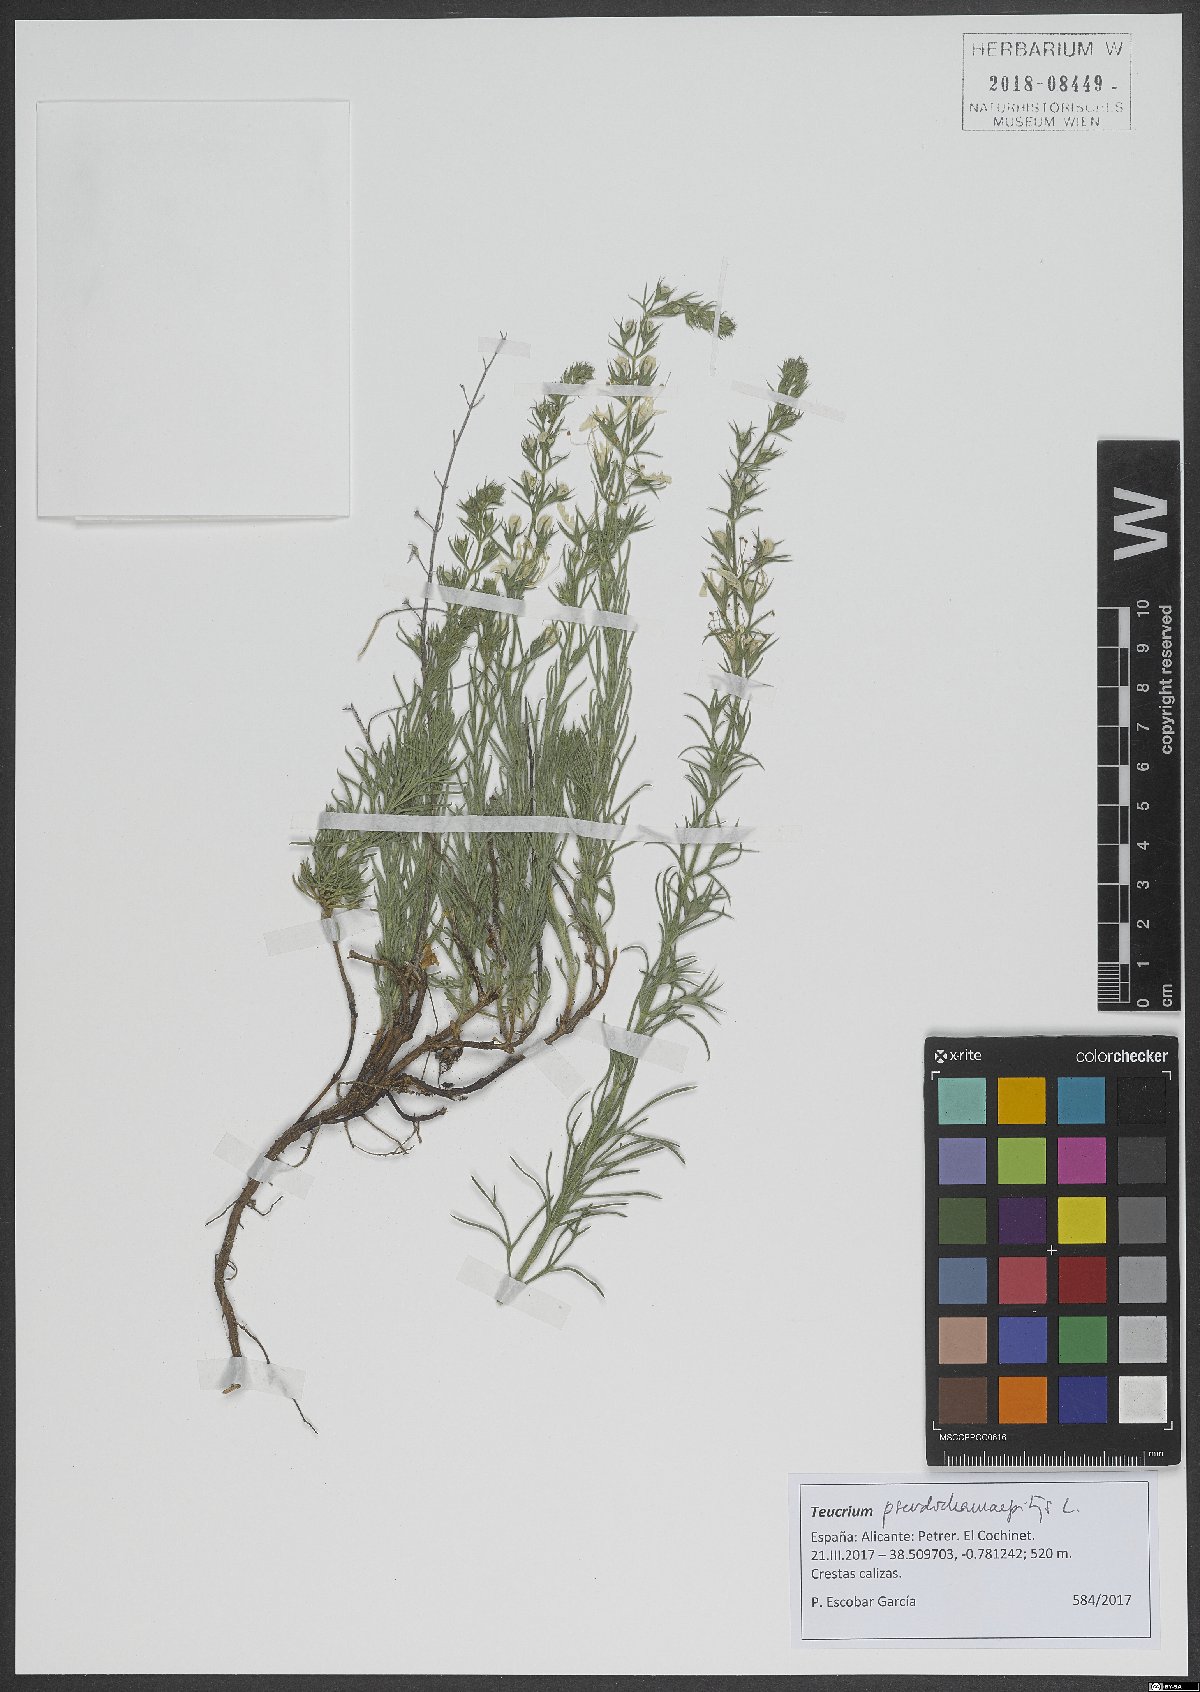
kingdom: Plantae
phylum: Tracheophyta
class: Magnoliopsida
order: Lamiales
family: Lamiaceae
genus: Teucrium
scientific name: Teucrium pseudochamaepitys
